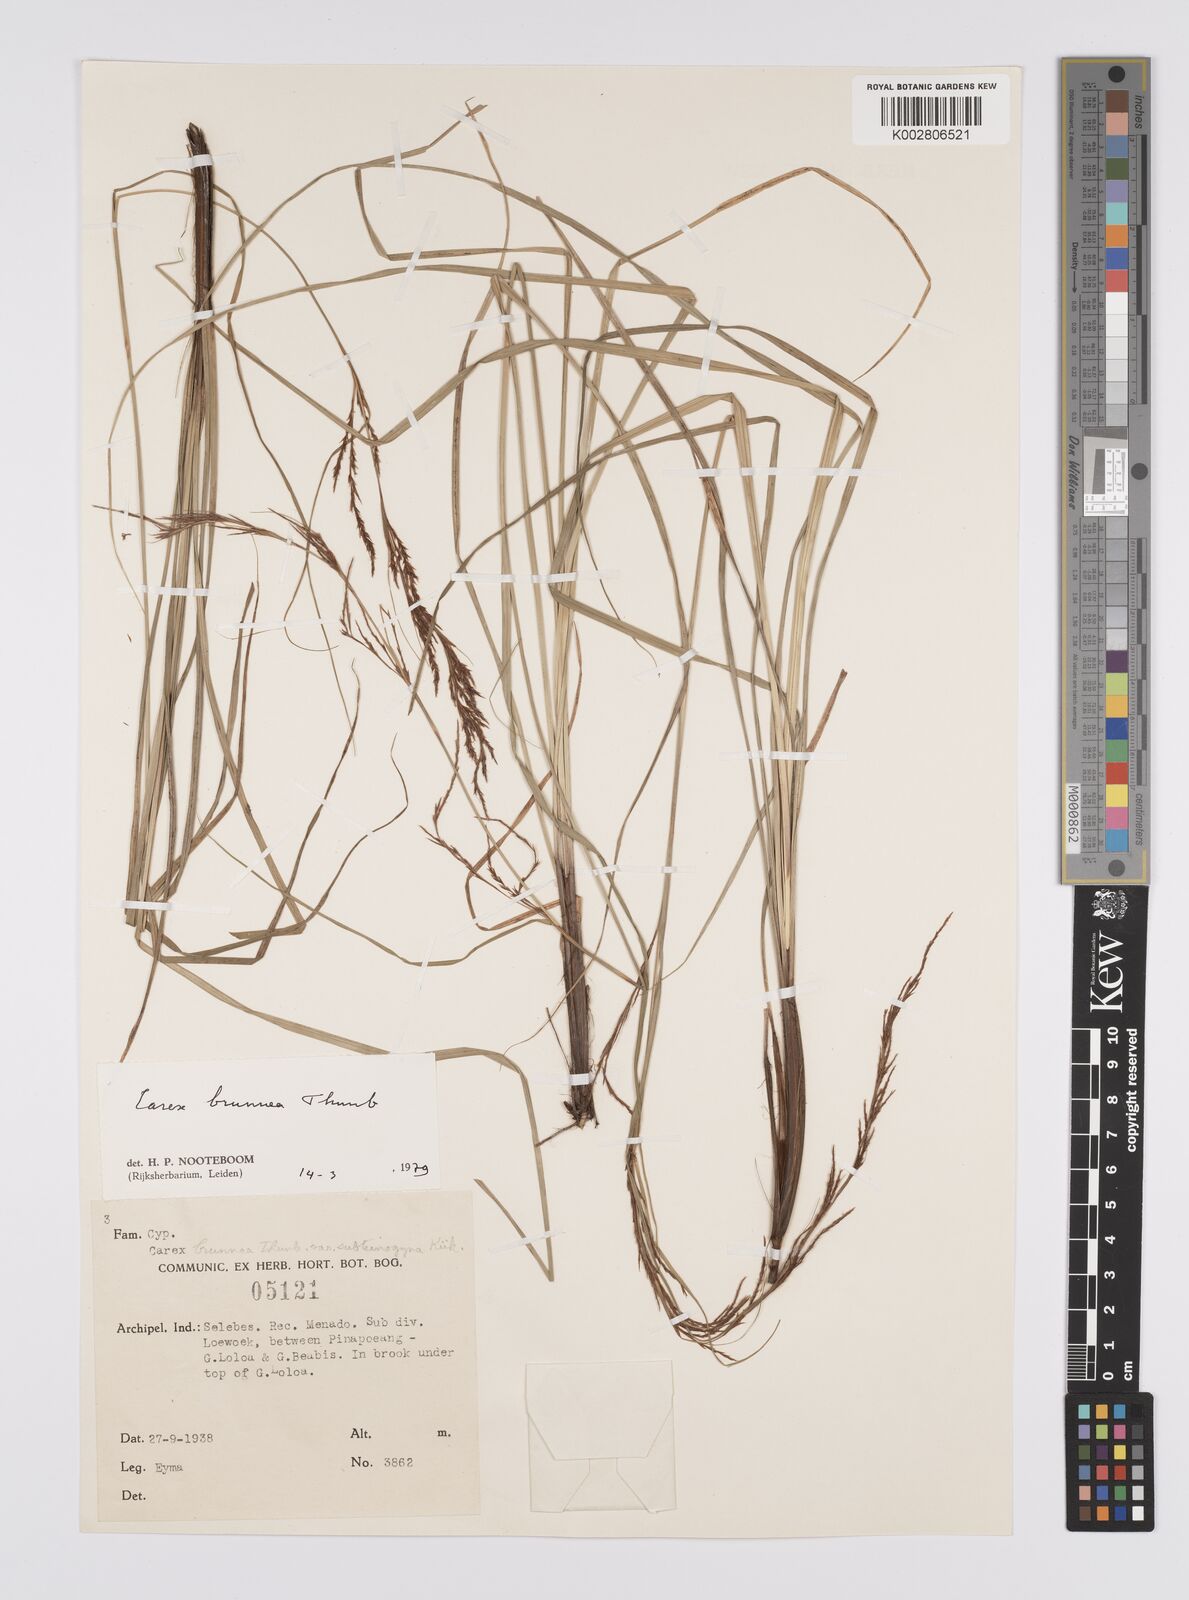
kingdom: Plantae
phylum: Tracheophyta
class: Liliopsida
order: Poales
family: Cyperaceae
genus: Carex
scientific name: Carex brunnea
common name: Greater brown sedge
